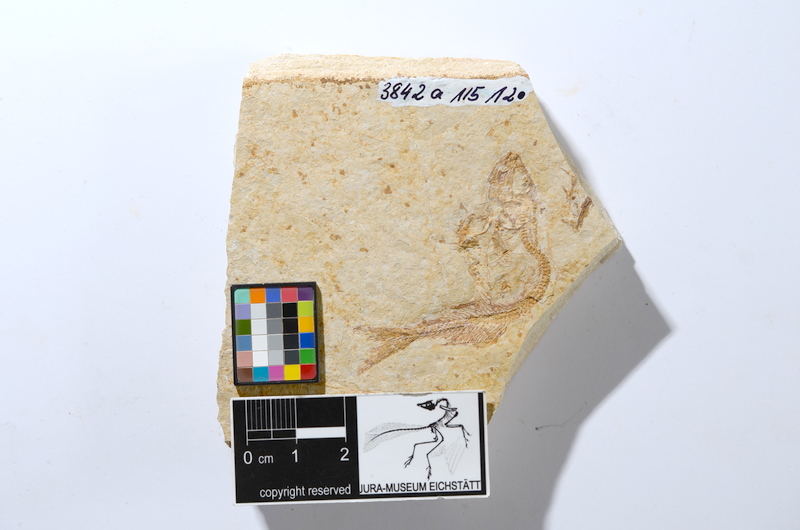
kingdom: Animalia
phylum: Chordata
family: Ascalaboidae
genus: Tharsis
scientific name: Tharsis dubius
